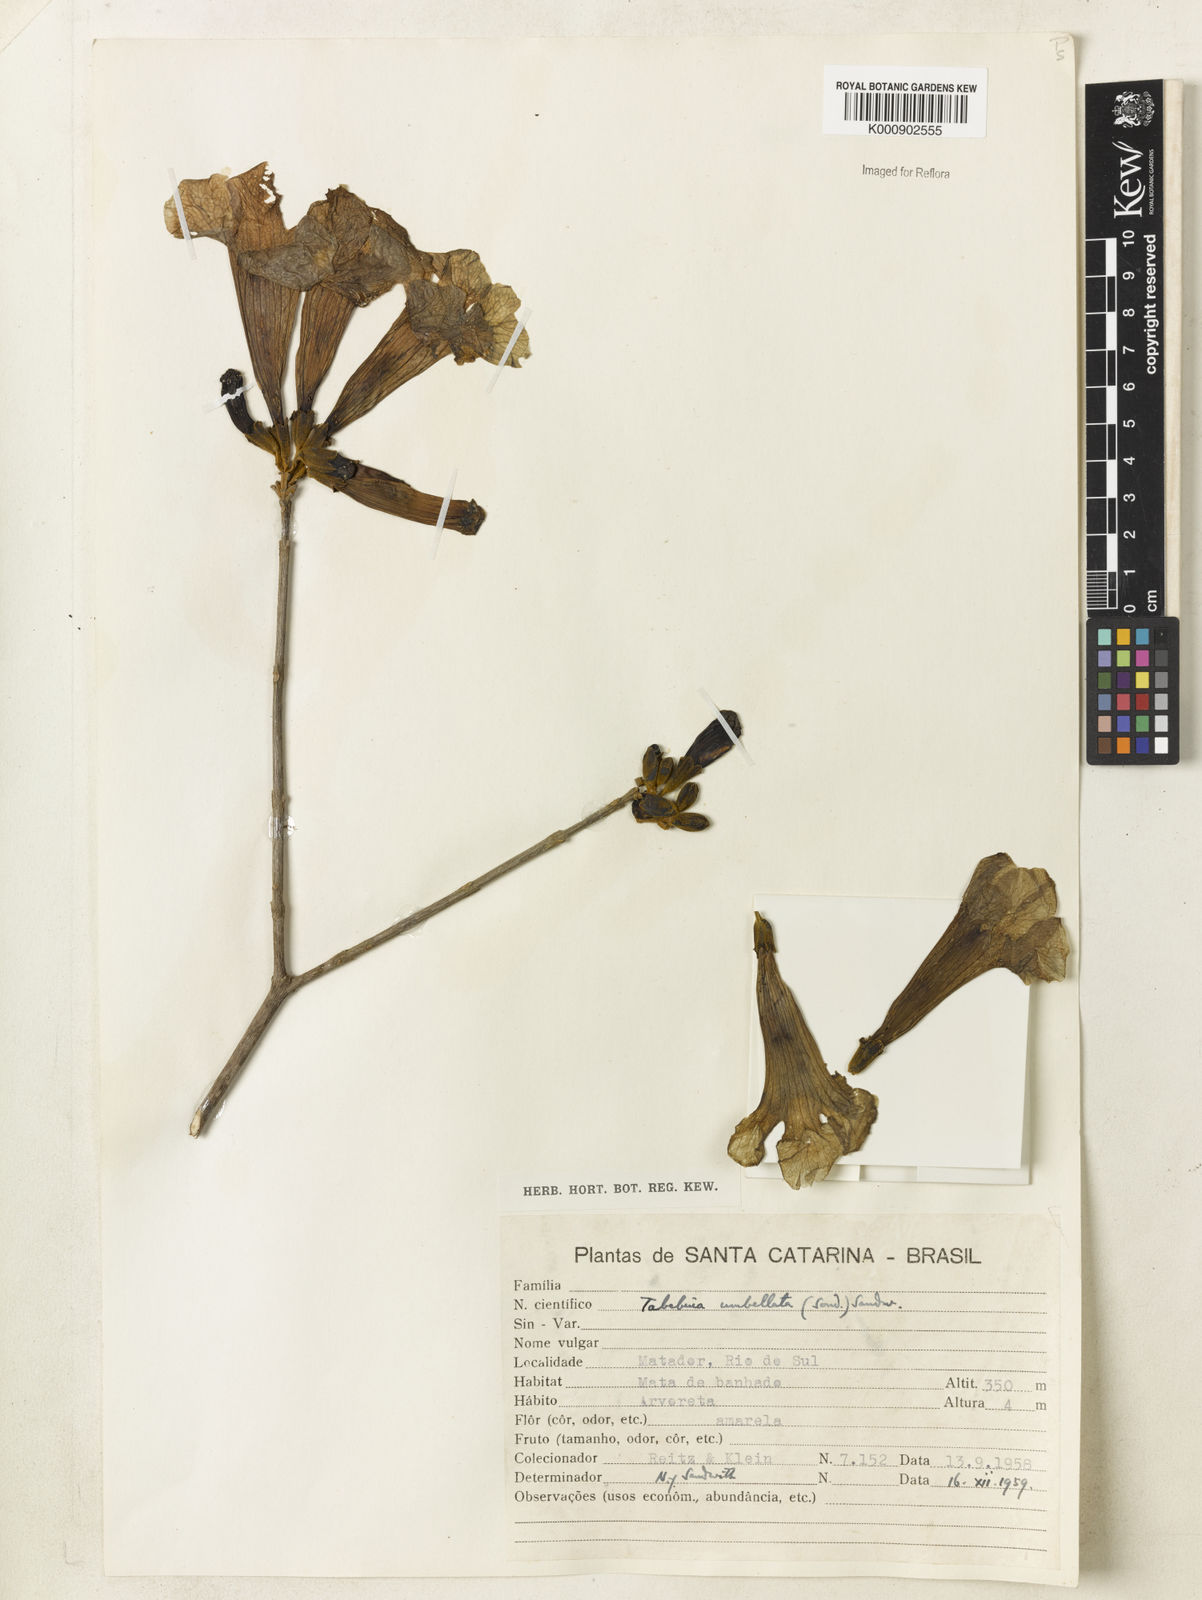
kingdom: Plantae
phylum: Tracheophyta
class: Magnoliopsida
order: Lamiales
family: Bignoniaceae
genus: Handroanthus
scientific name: Handroanthus umbellatus
